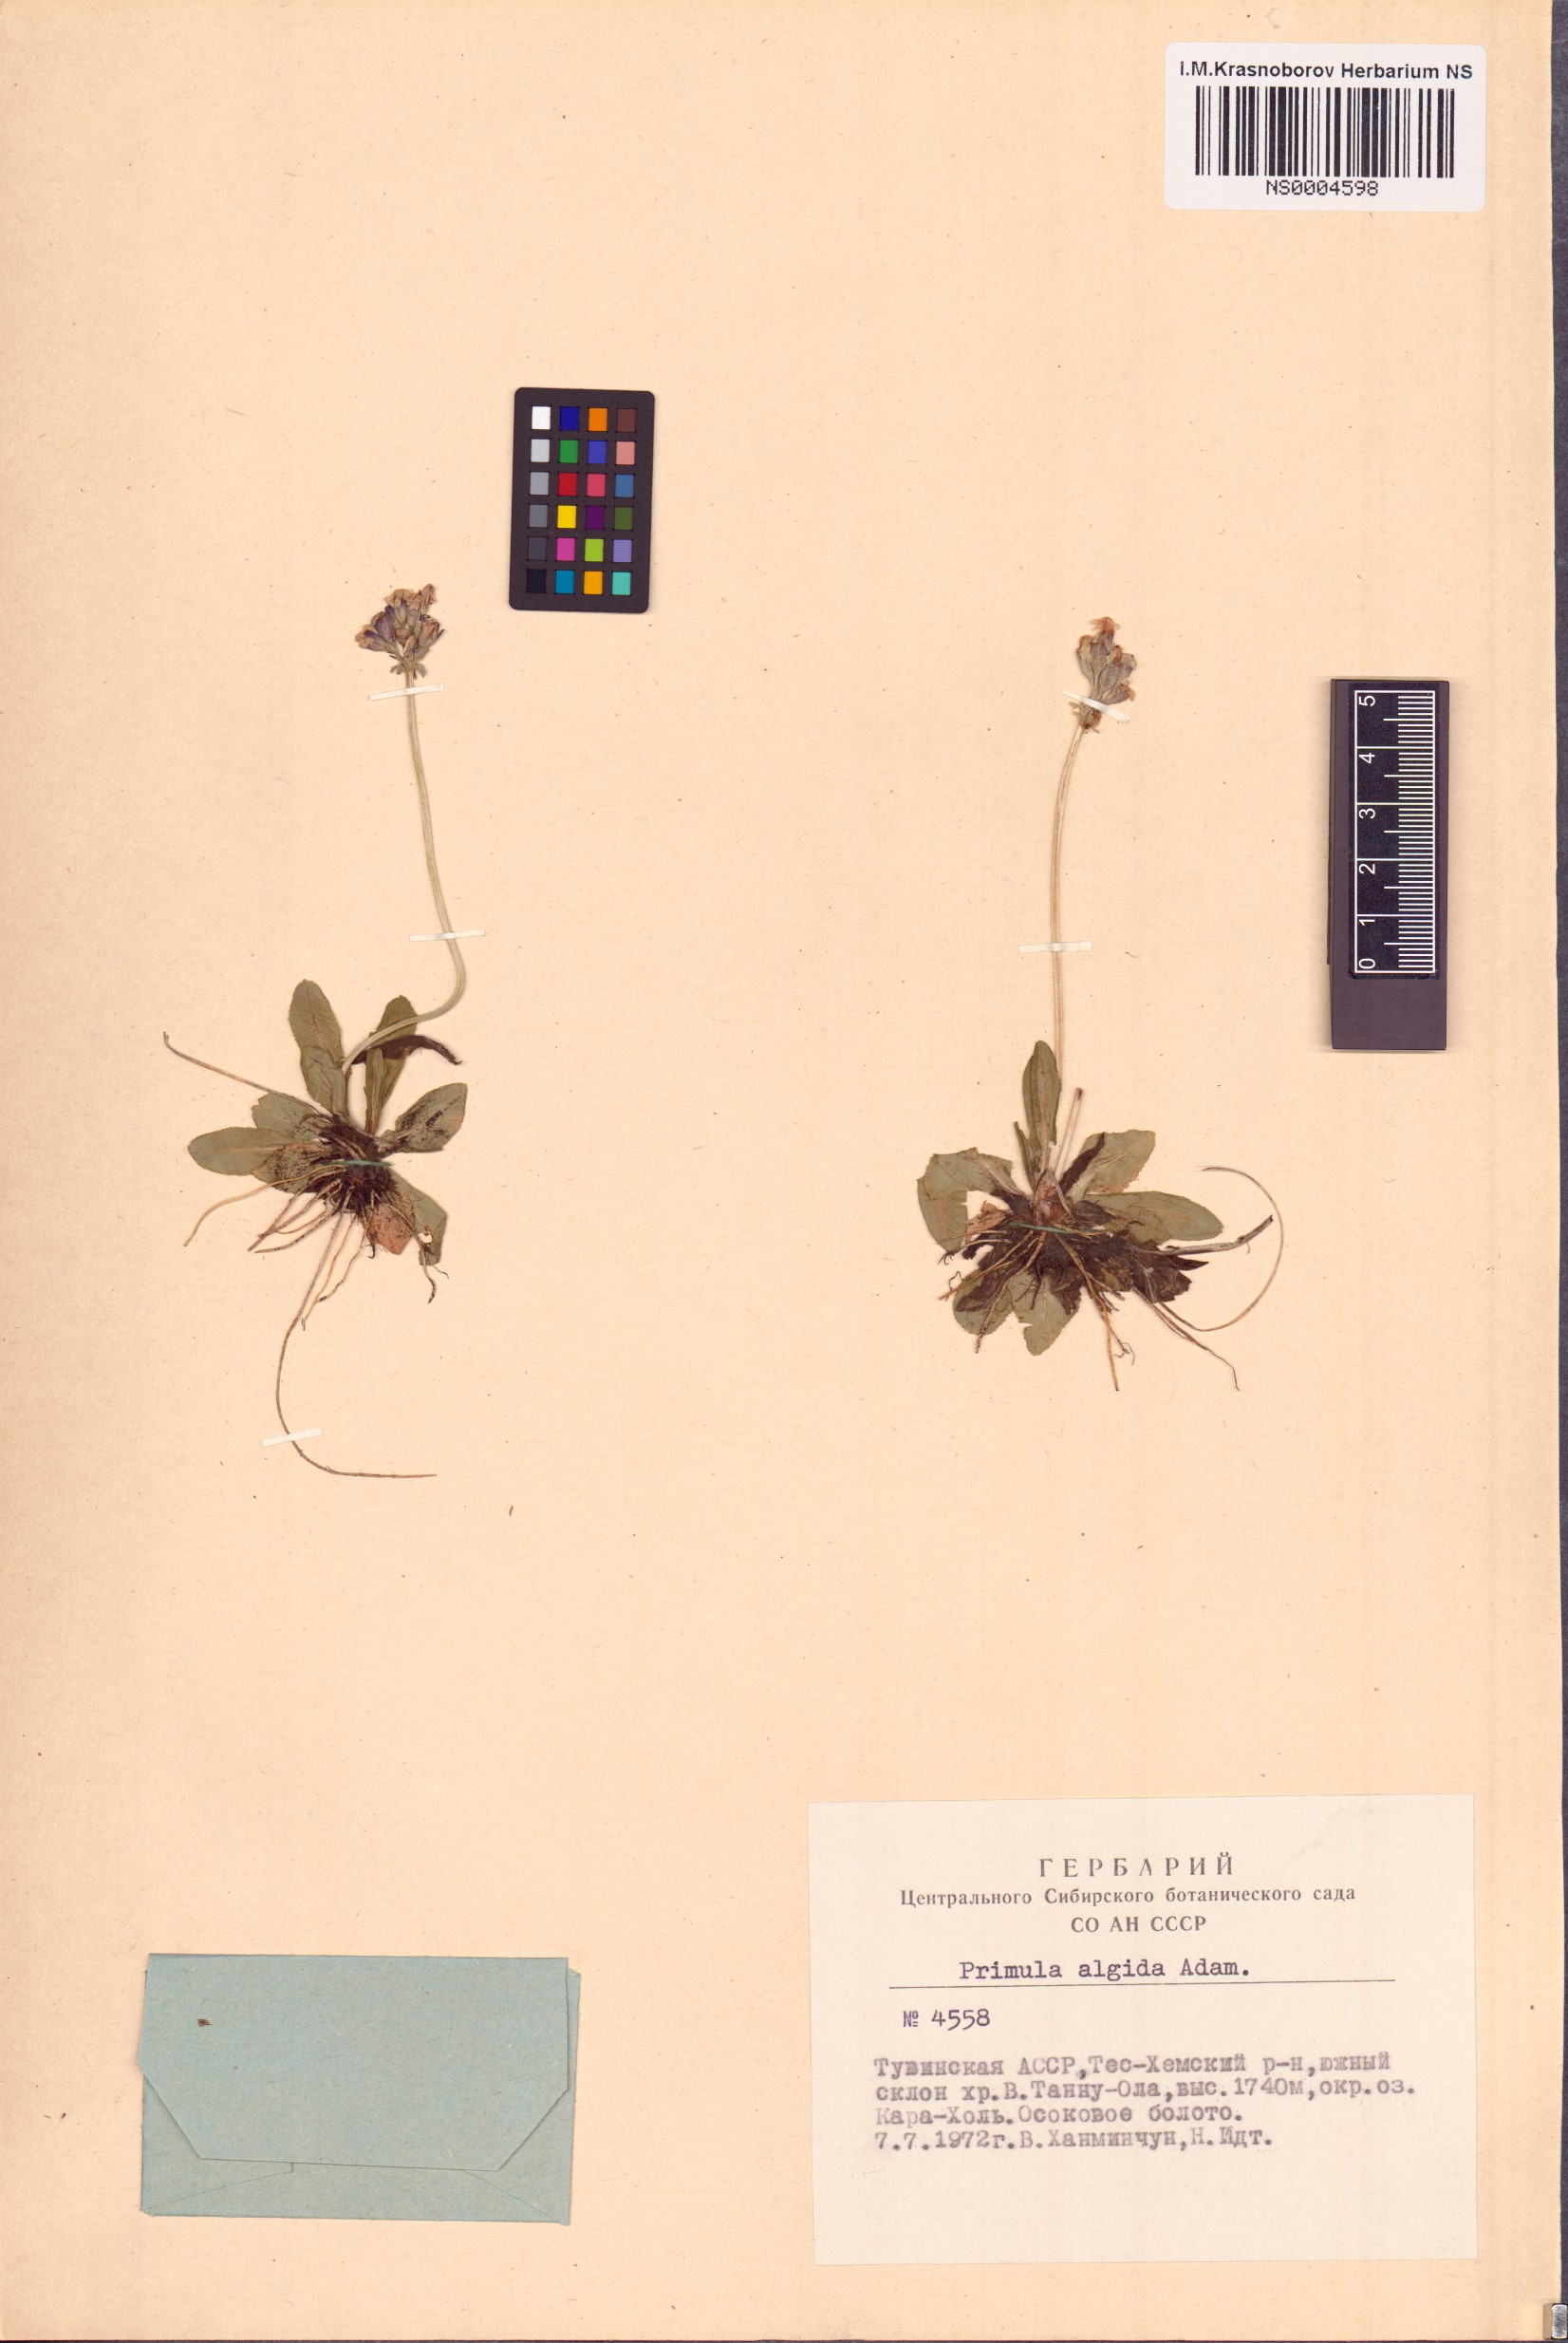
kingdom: Plantae
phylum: Tracheophyta
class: Magnoliopsida
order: Ericales
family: Primulaceae
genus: Primula
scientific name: Primula algida
